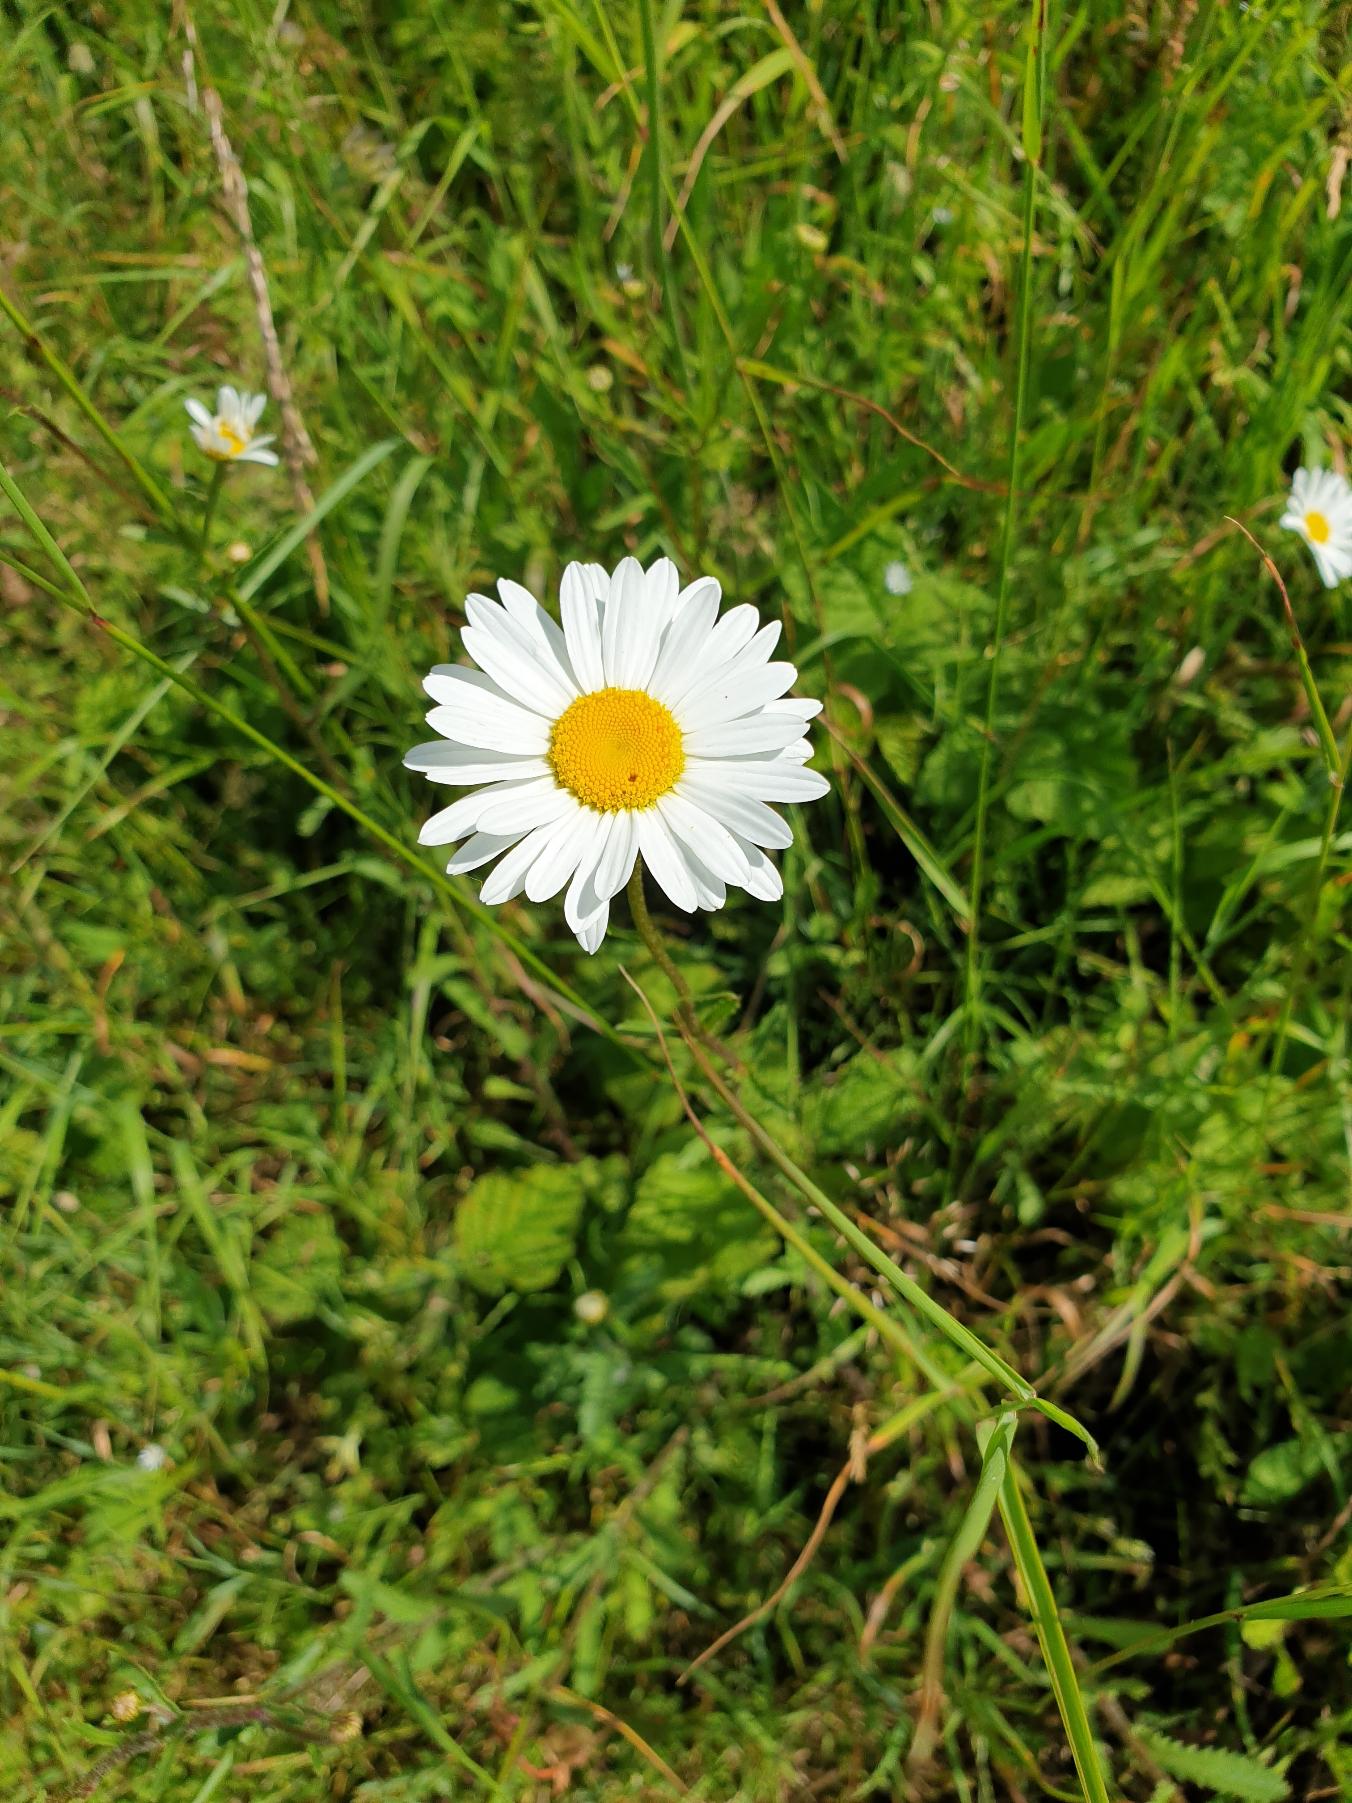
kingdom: Plantae
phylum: Tracheophyta
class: Magnoliopsida
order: Asterales
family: Asteraceae
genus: Leucanthemum
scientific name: Leucanthemum vulgare
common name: Hvid okseøje
